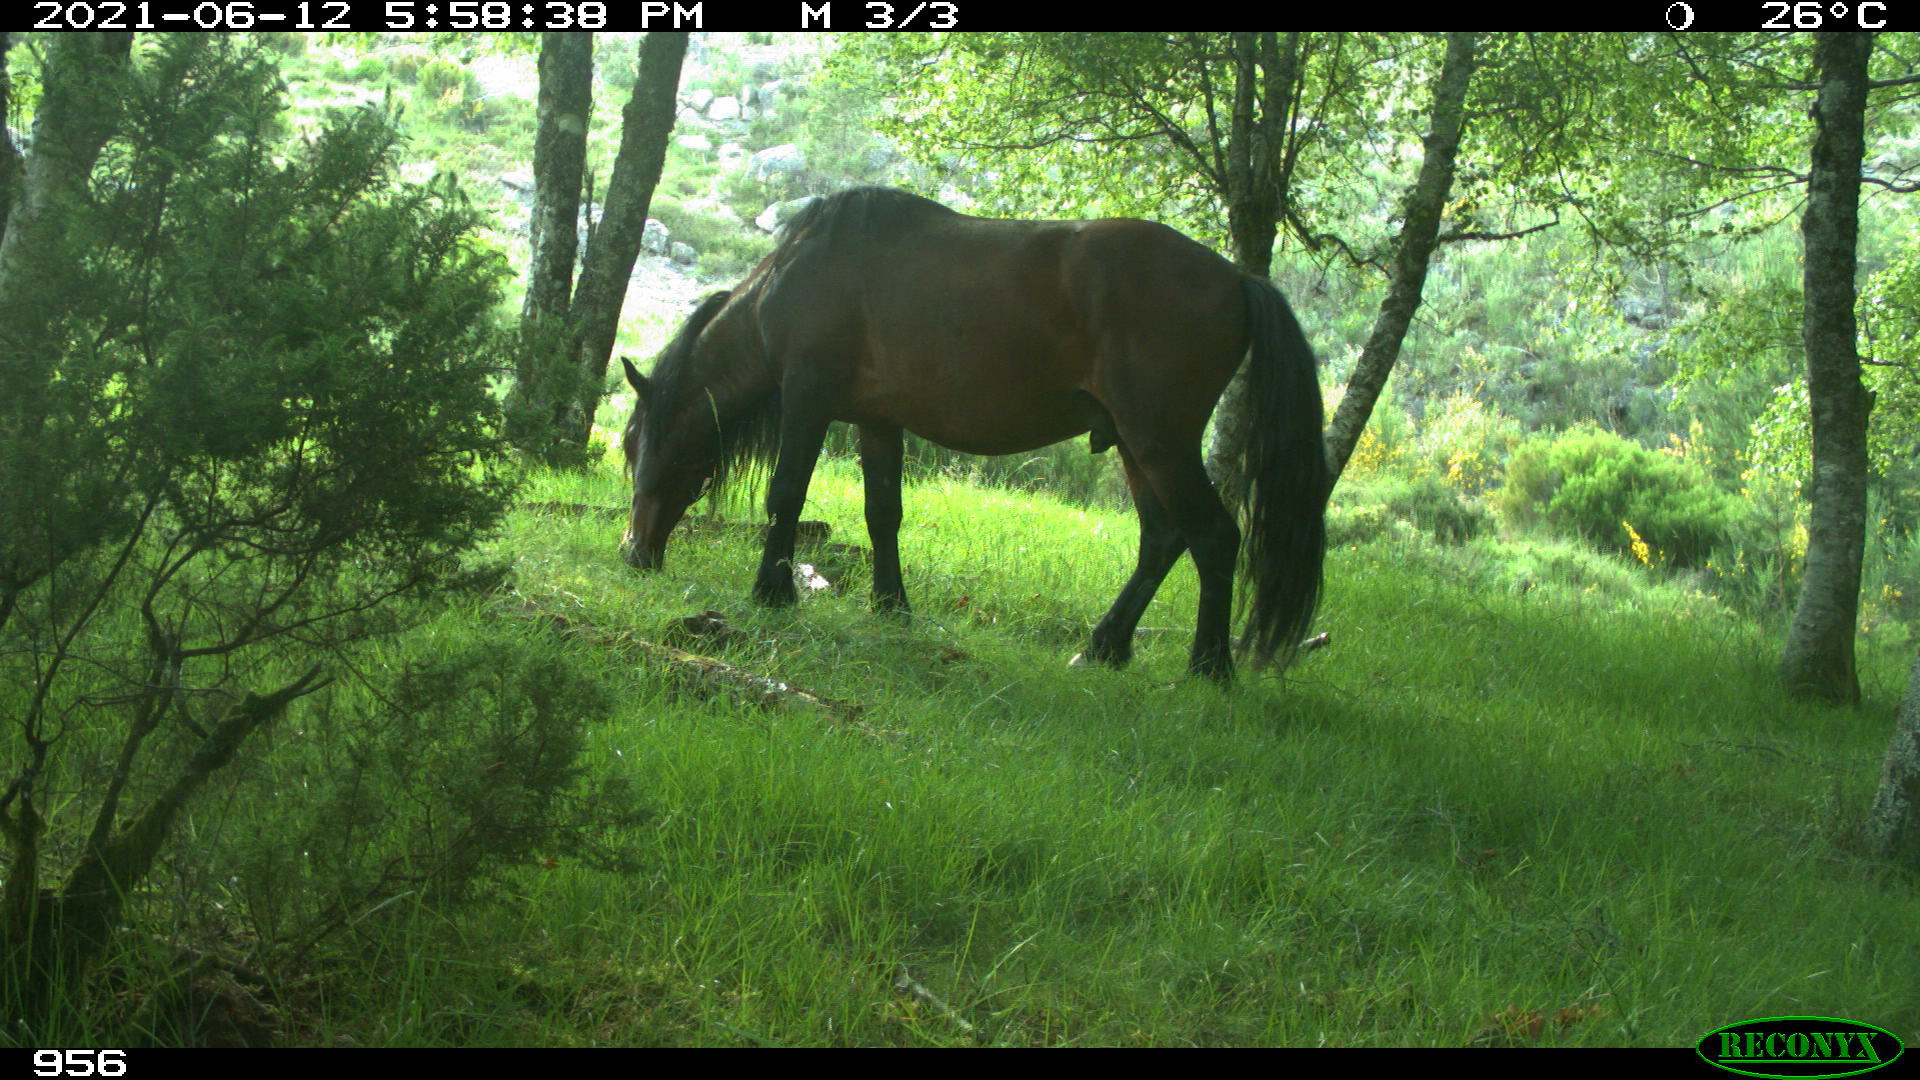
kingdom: Animalia
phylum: Chordata
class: Mammalia
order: Perissodactyla
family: Equidae
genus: Equus
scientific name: Equus caballus
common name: Horse
